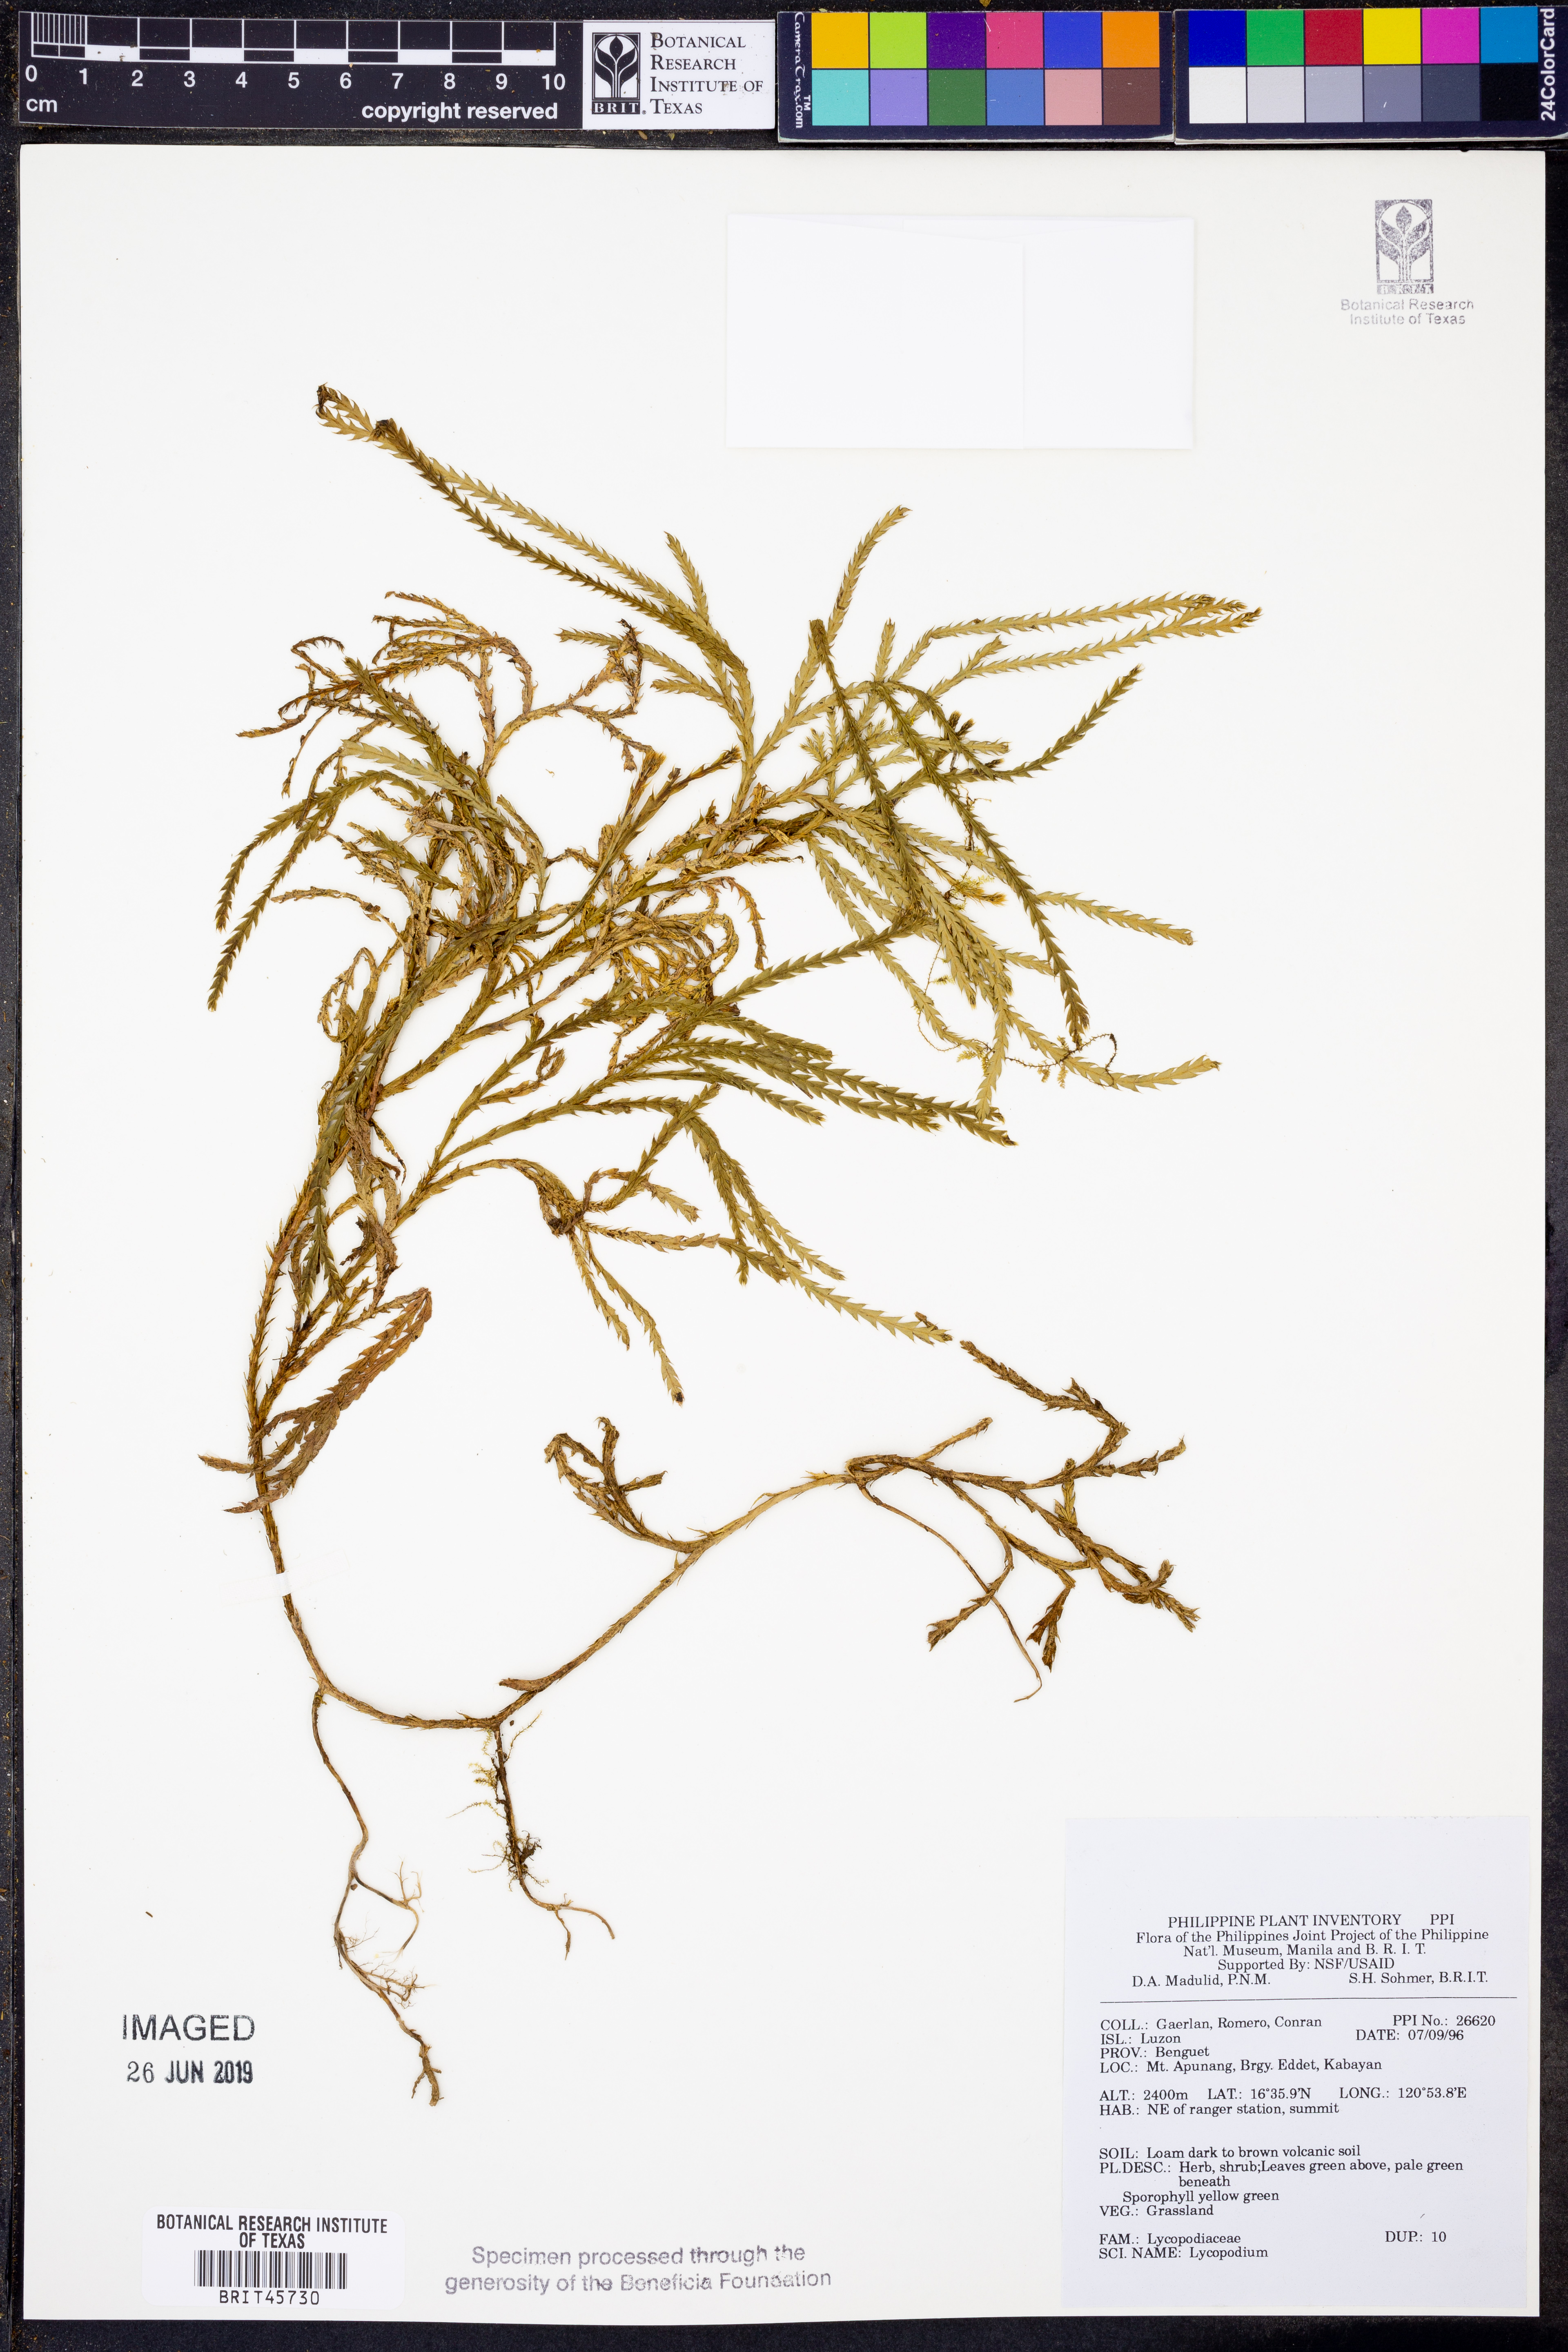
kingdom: Plantae
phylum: Tracheophyta
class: Lycopodiopsida
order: Lycopodiales
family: Lycopodiaceae
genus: Lycopodium
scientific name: Lycopodium
